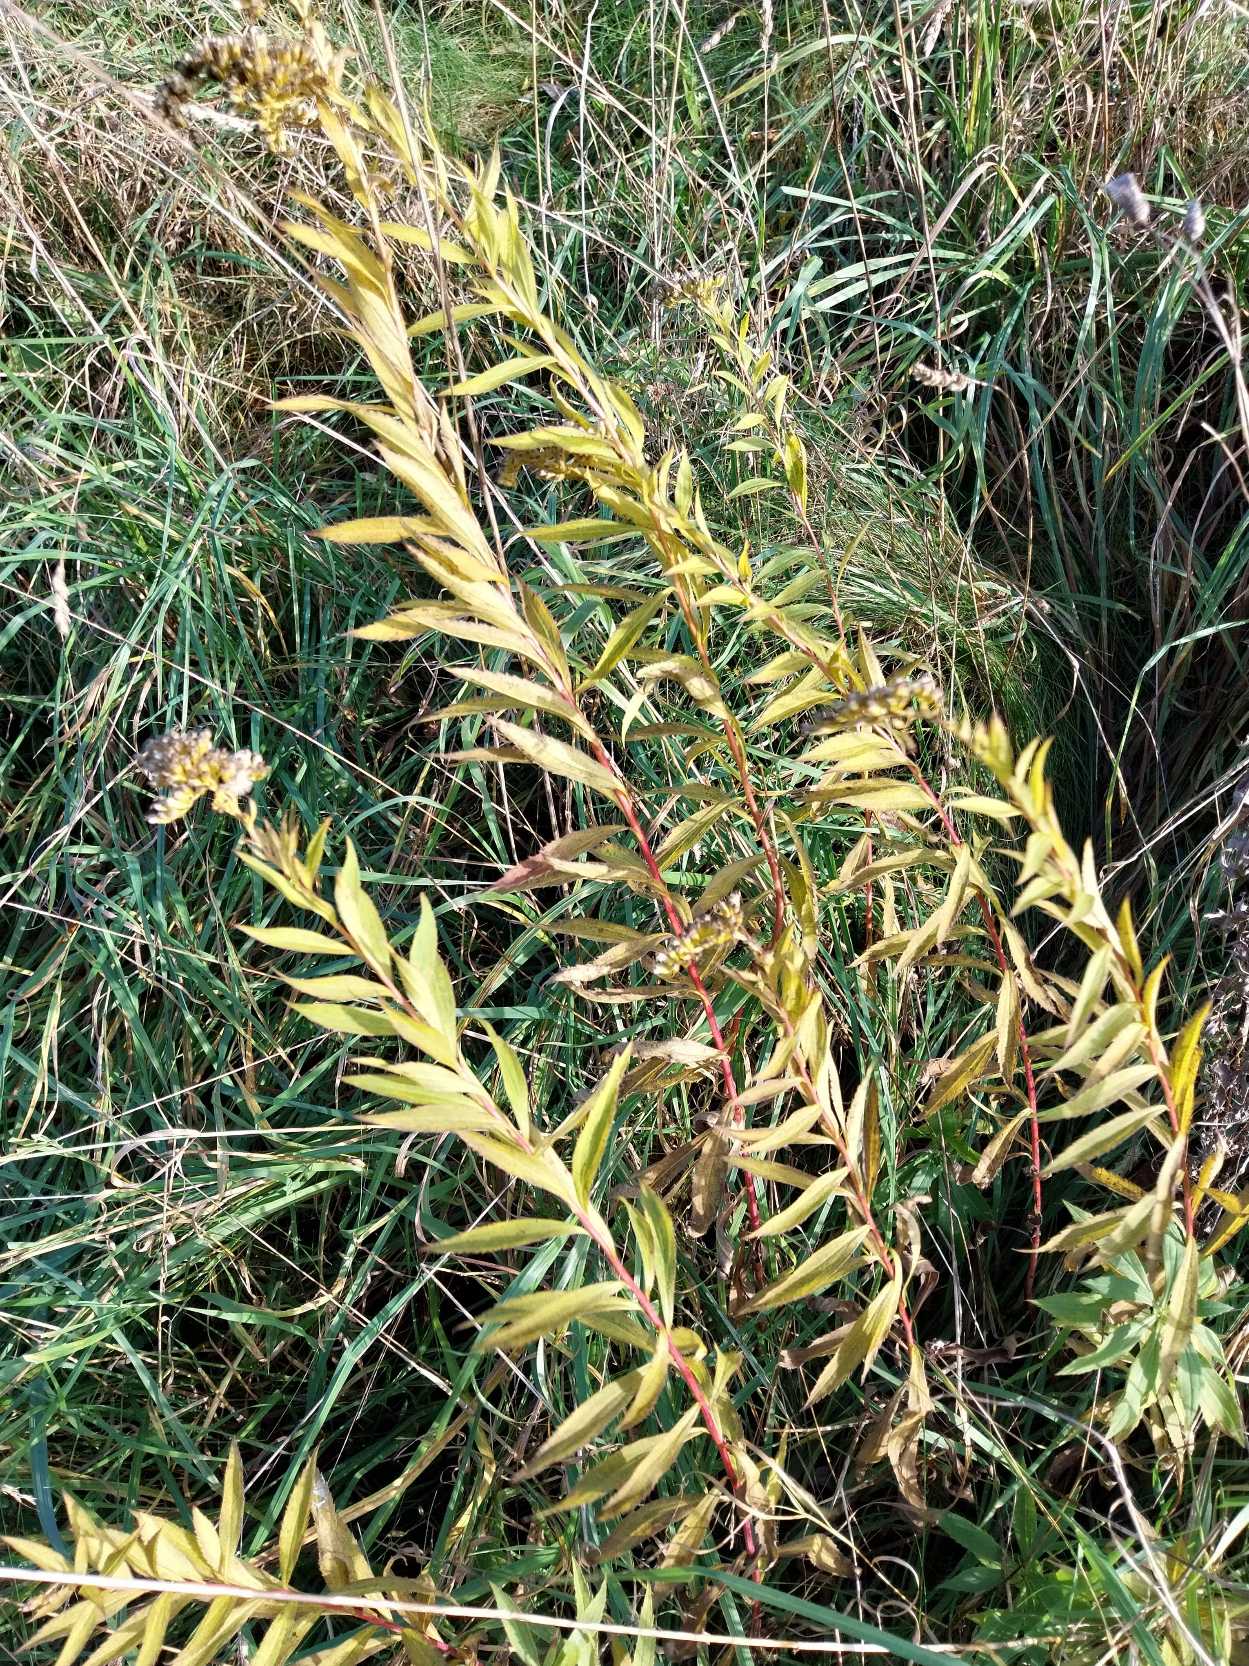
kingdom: Plantae
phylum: Tracheophyta
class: Magnoliopsida
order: Asterales
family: Asteraceae
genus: Solidago
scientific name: Solidago gigantea
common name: Sildig gyldenris
